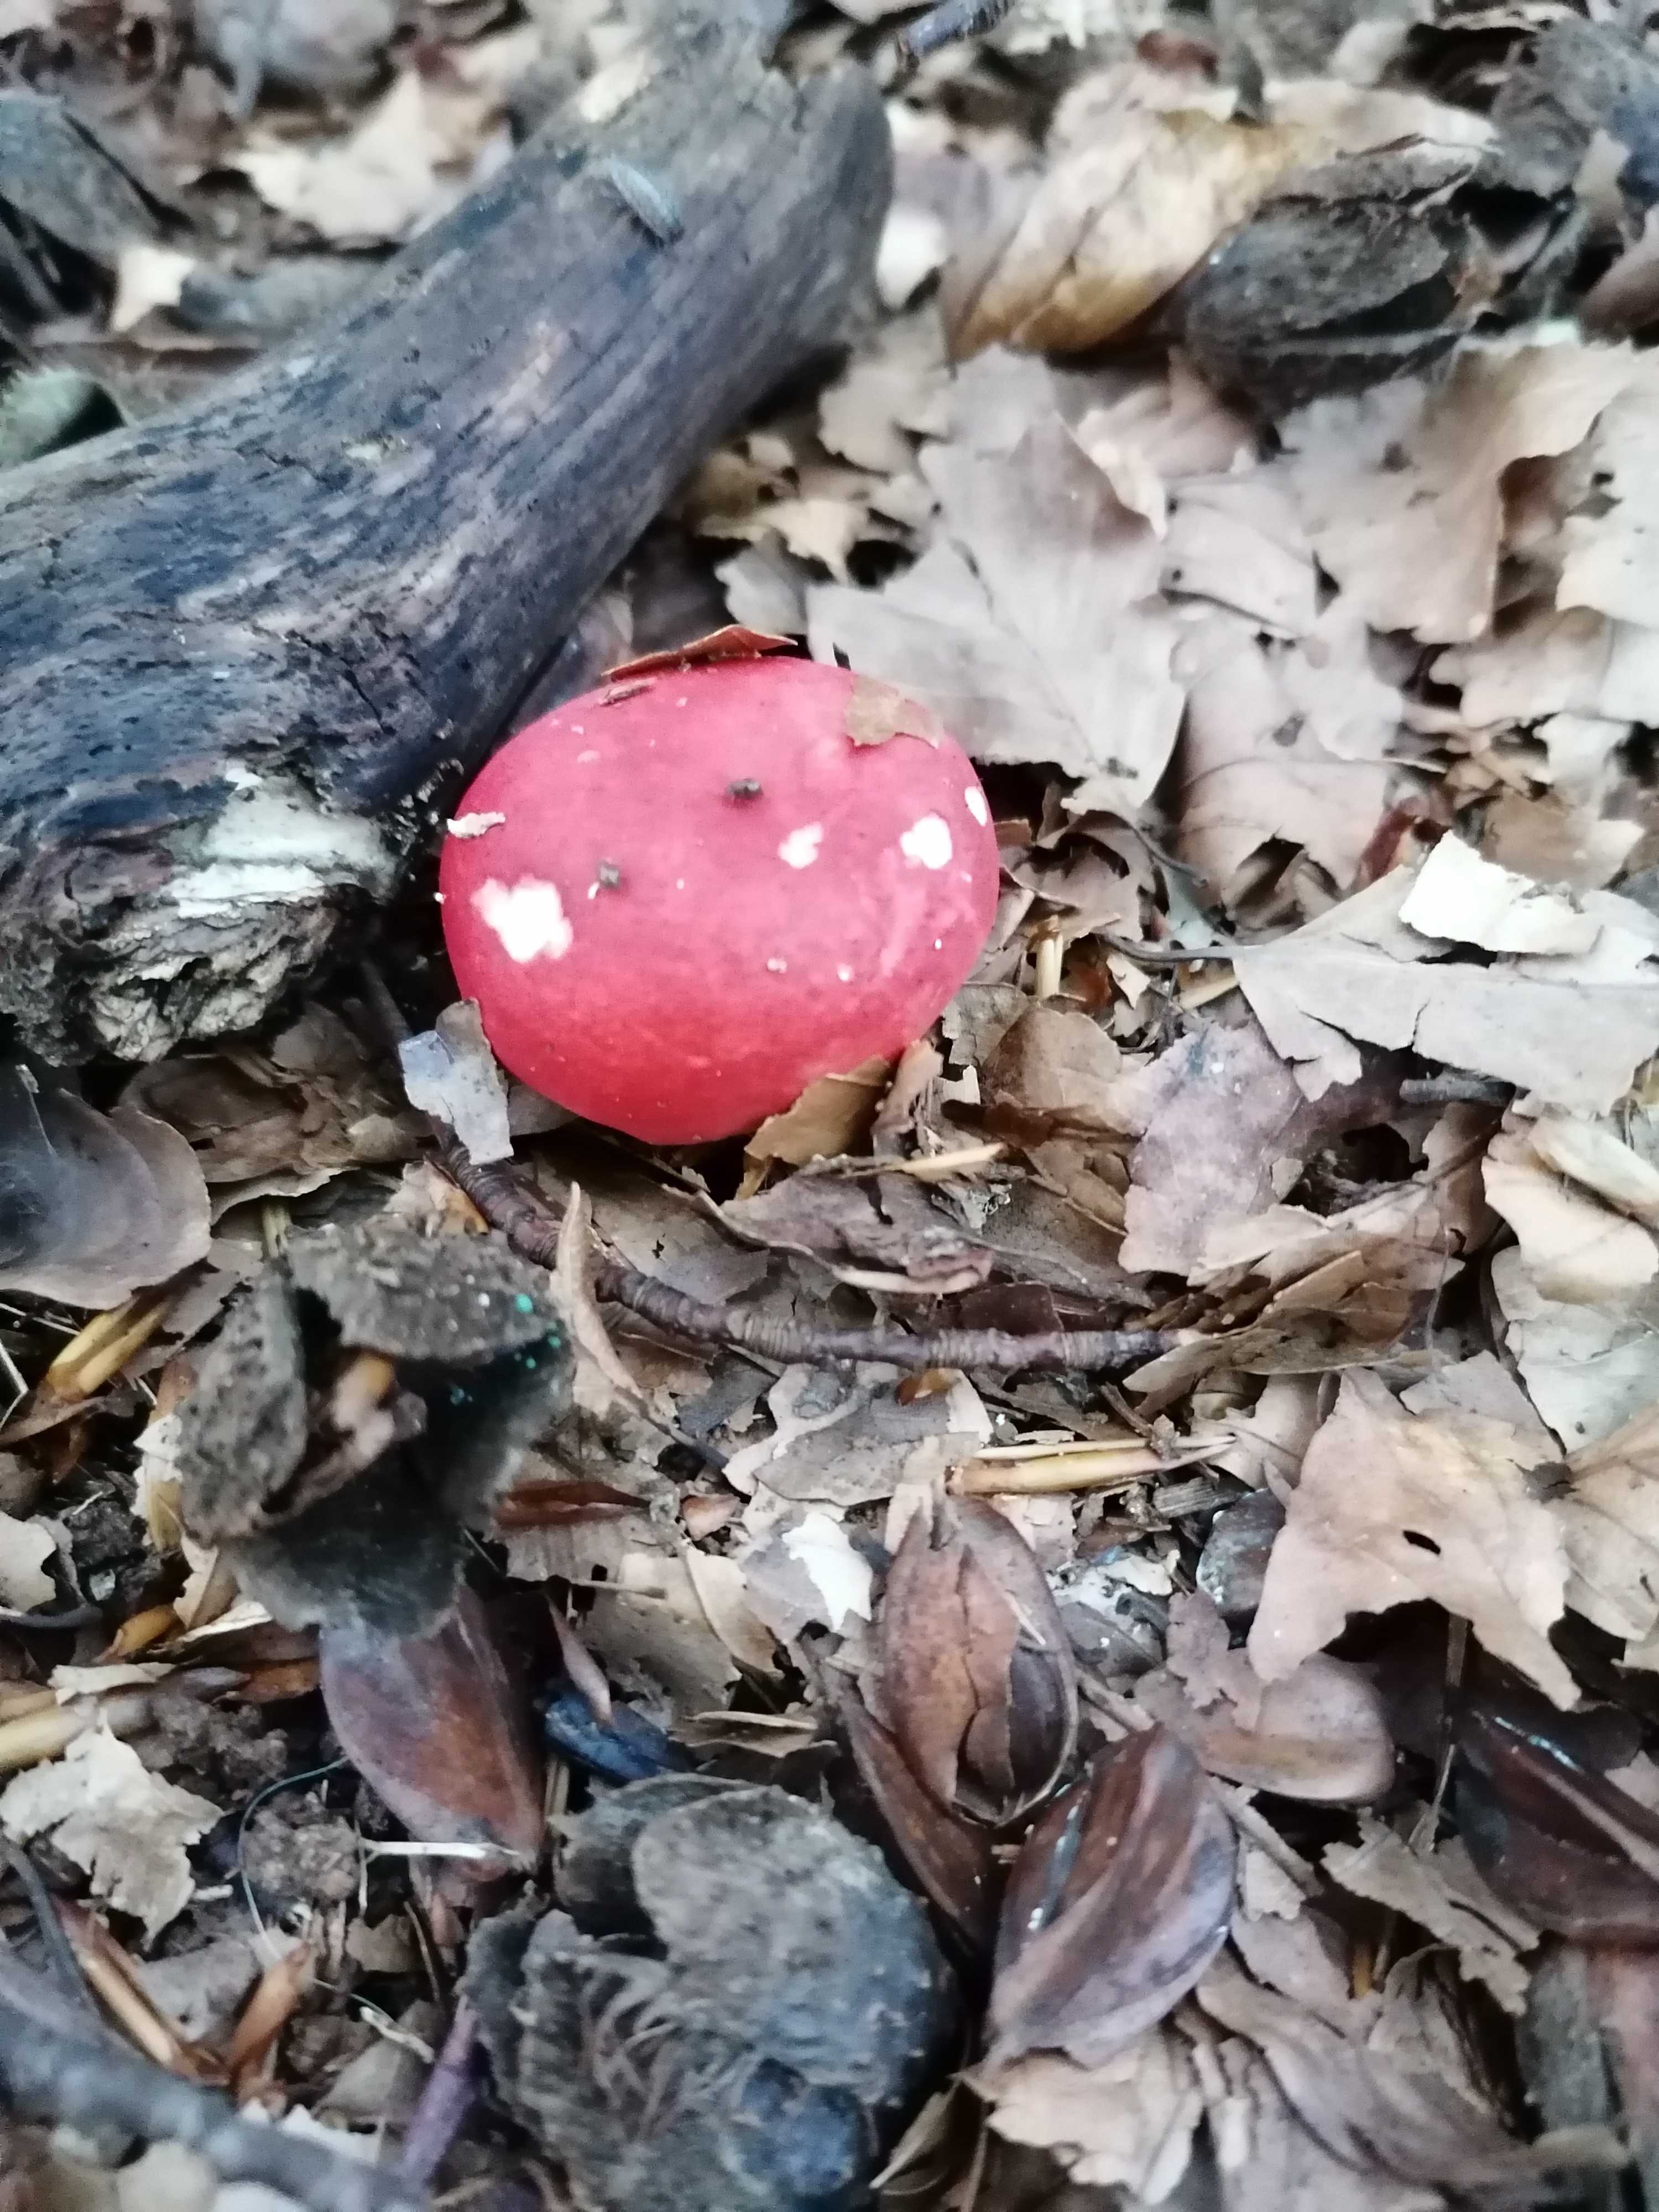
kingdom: Fungi
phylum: Basidiomycota
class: Agaricomycetes
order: Russulales
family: Russulaceae
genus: Russula
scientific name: Russula nobilis
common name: lille gift-skørhat
